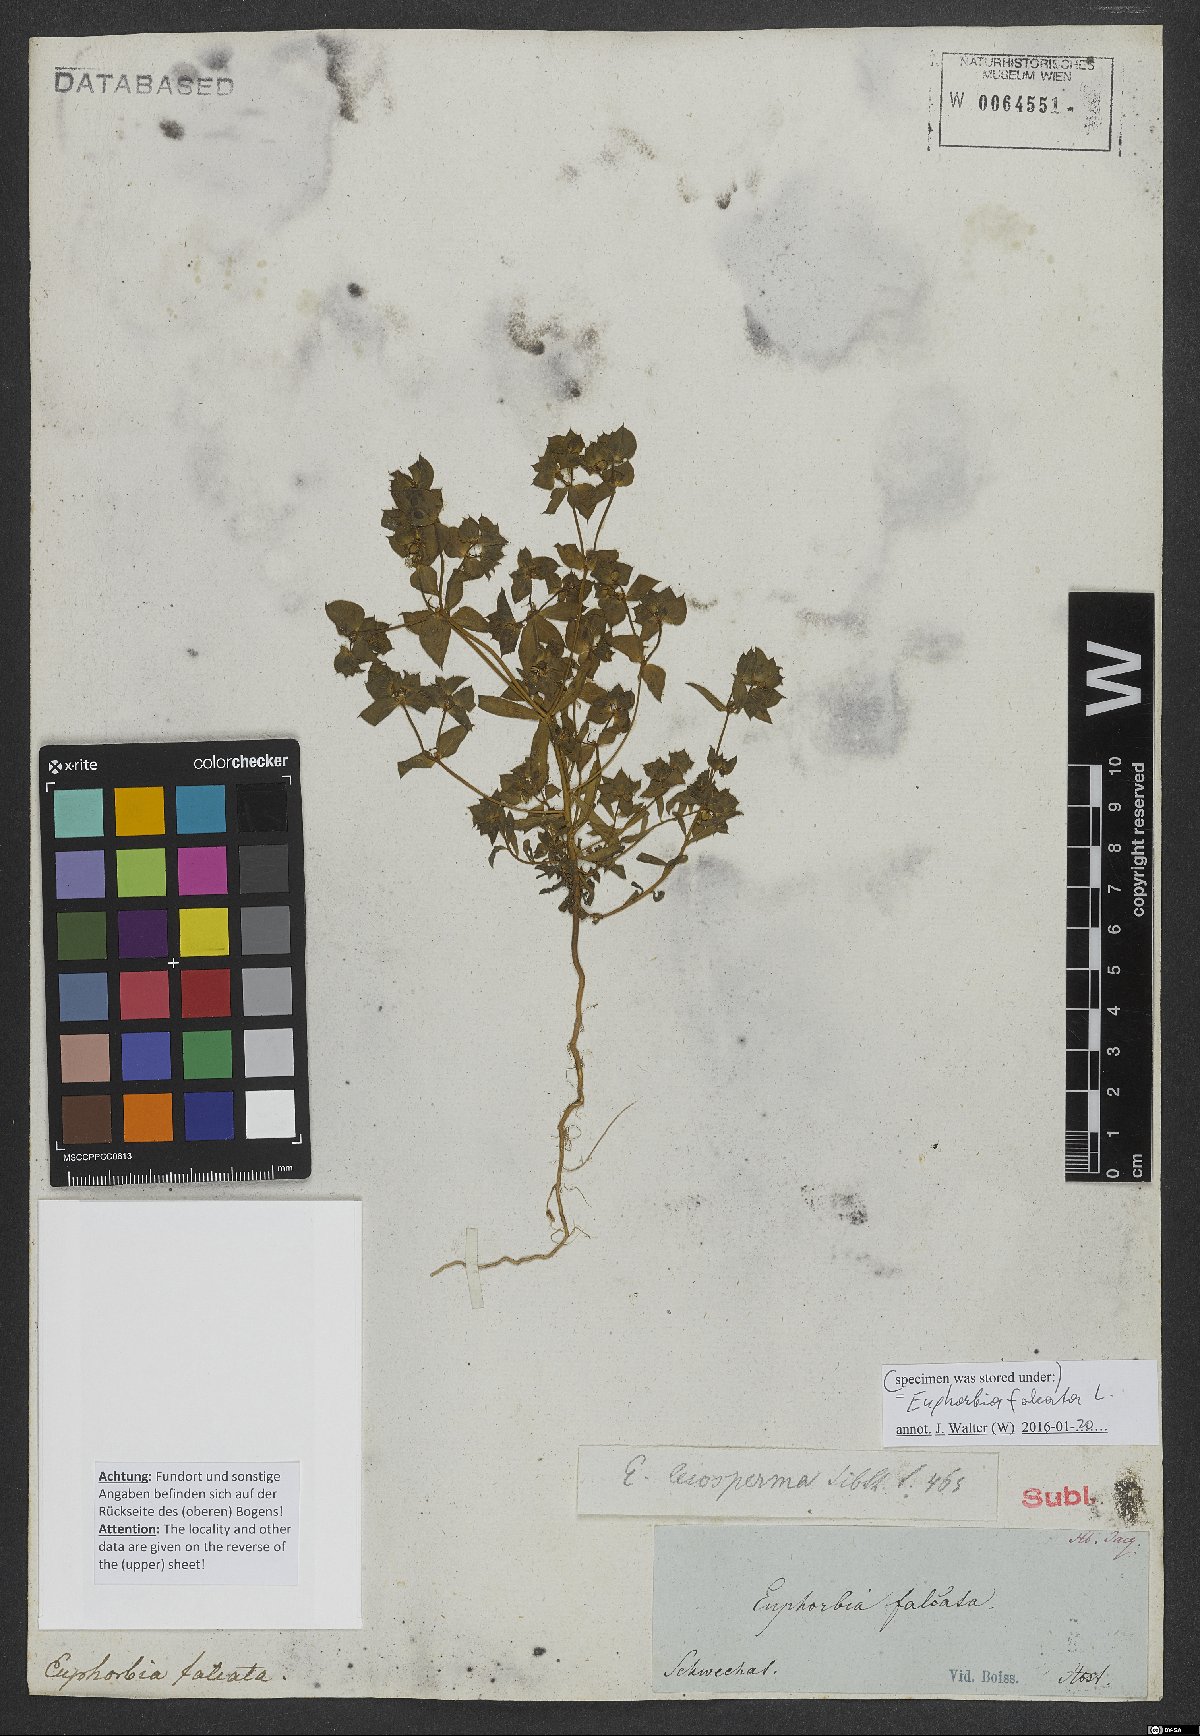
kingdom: Plantae
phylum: Tracheophyta
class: Magnoliopsida
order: Malpighiales
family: Euphorbiaceae
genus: Euphorbia
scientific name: Euphorbia falcata
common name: Sickle spurge
